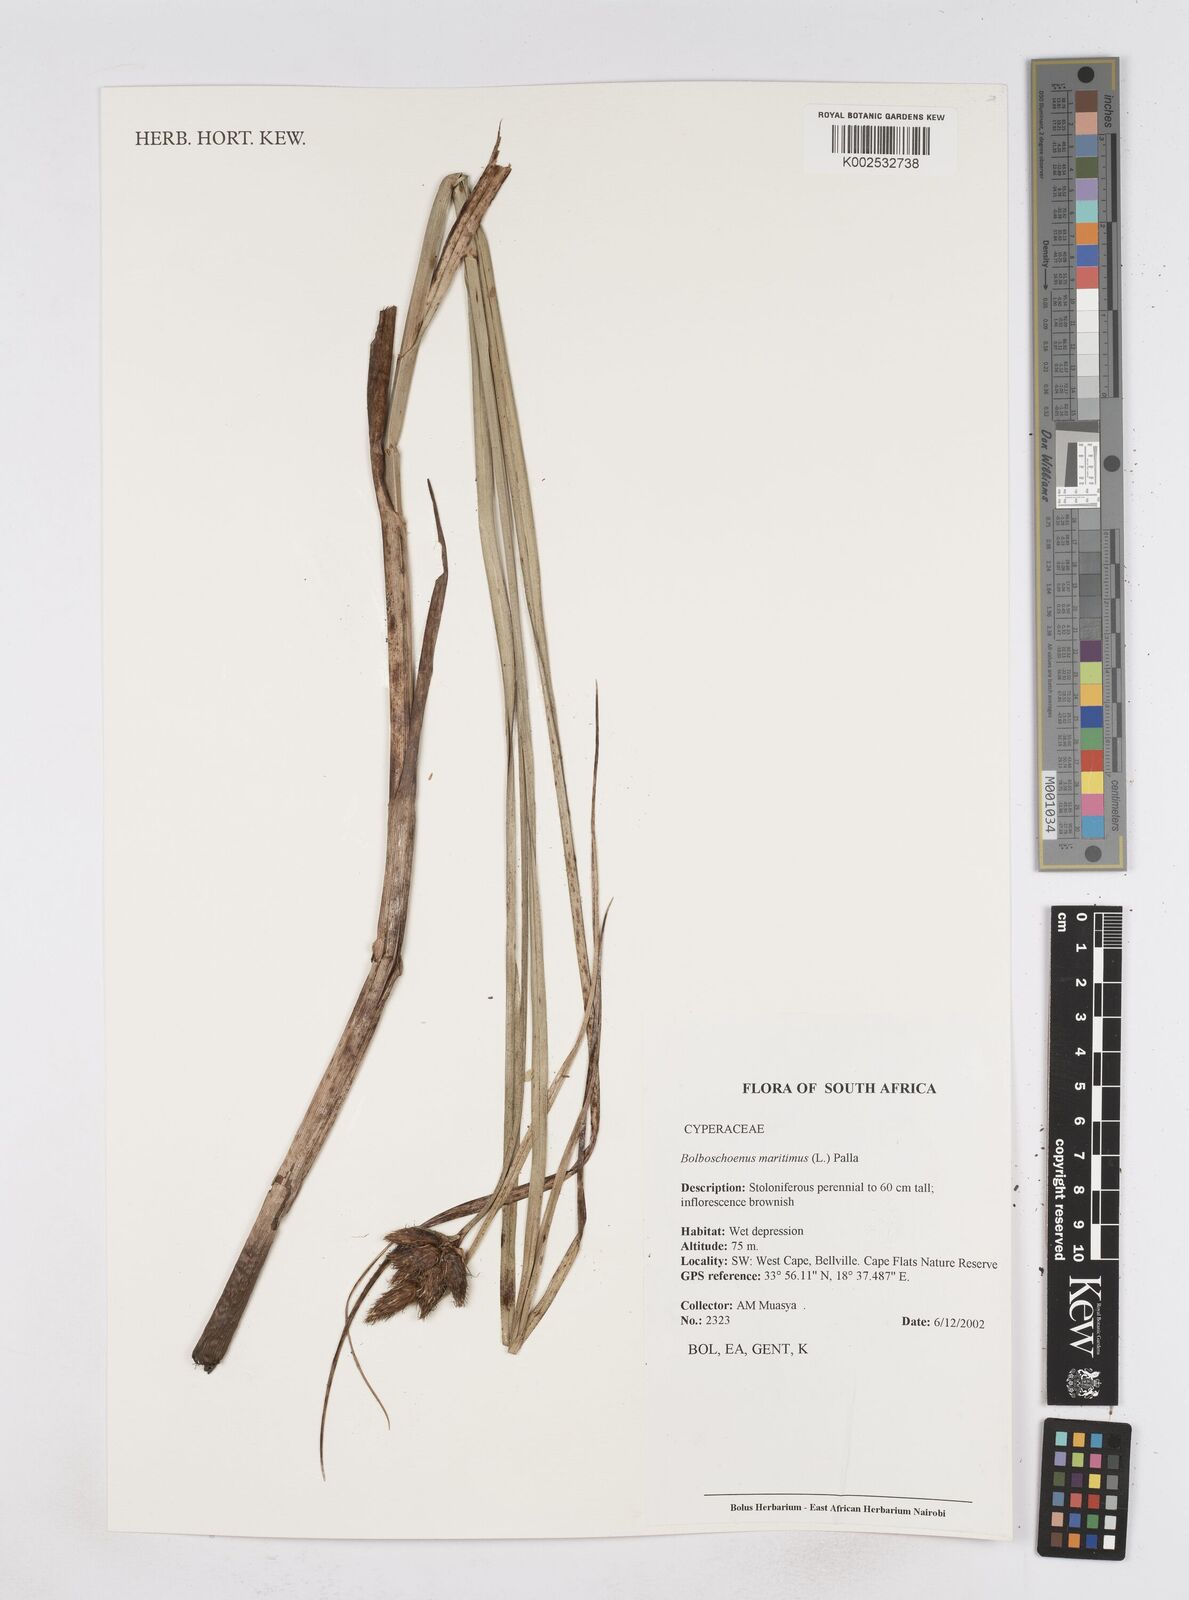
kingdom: Plantae
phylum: Tracheophyta
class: Liliopsida
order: Poales
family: Cyperaceae
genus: Bolboschoenus
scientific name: Bolboschoenus maritimus
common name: Sea club-rush
